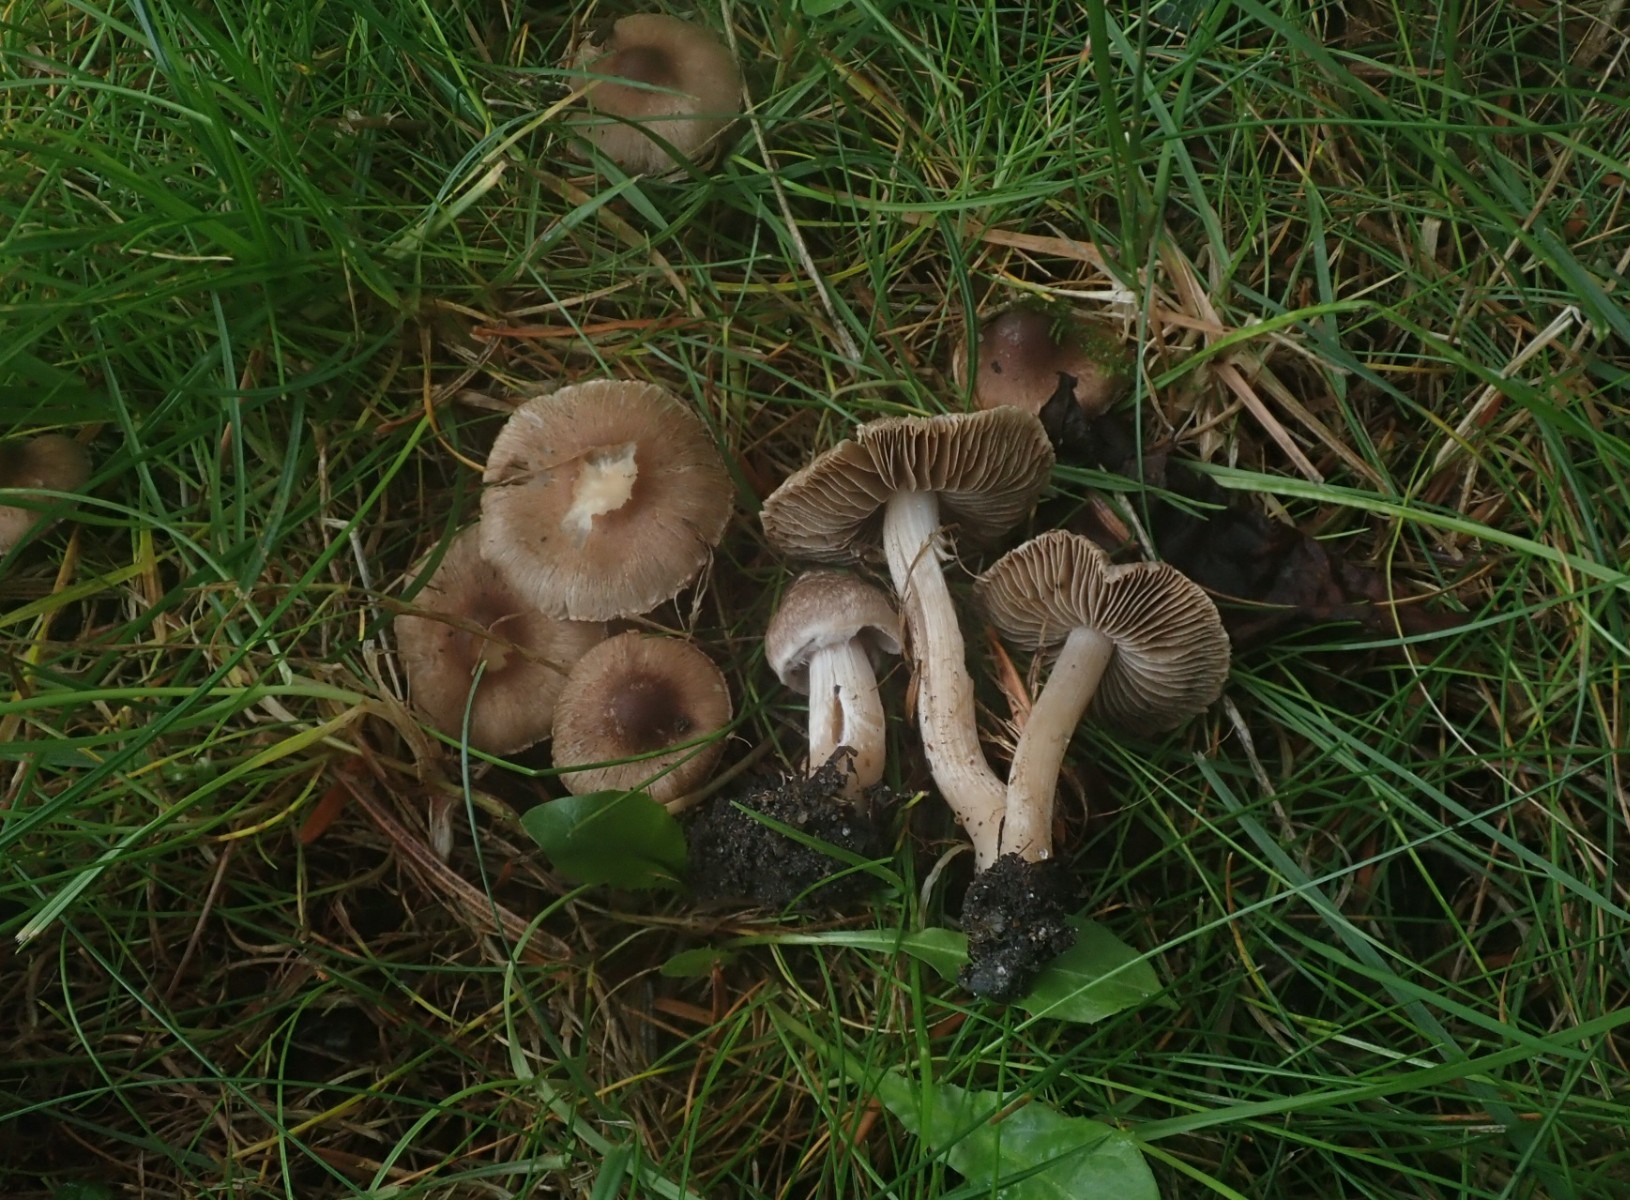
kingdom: Fungi
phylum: Basidiomycota
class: Agaricomycetes
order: Agaricales
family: Inocybaceae
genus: Inocybe
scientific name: Inocybe
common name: trævlhat
